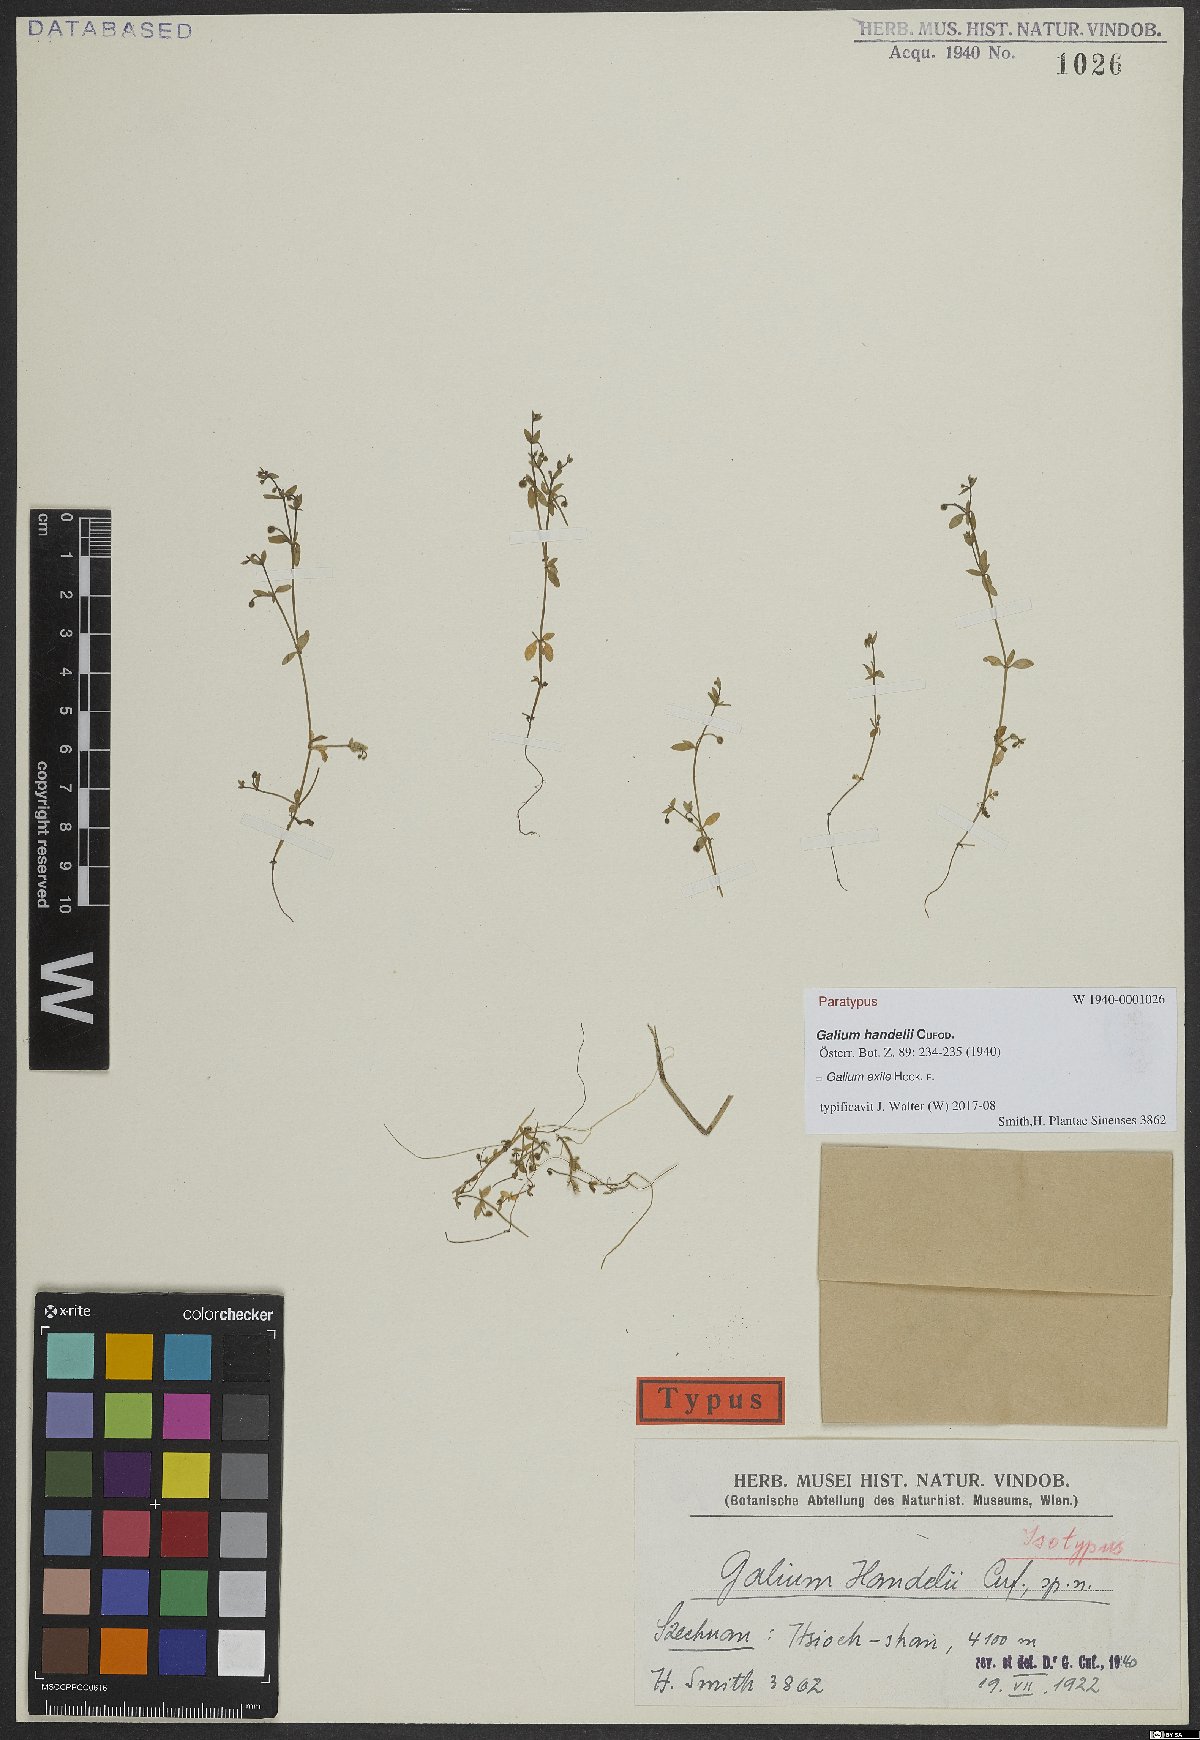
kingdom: Plantae
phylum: Tracheophyta
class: Magnoliopsida
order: Gentianales
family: Rubiaceae
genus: Galium
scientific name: Galium exile
